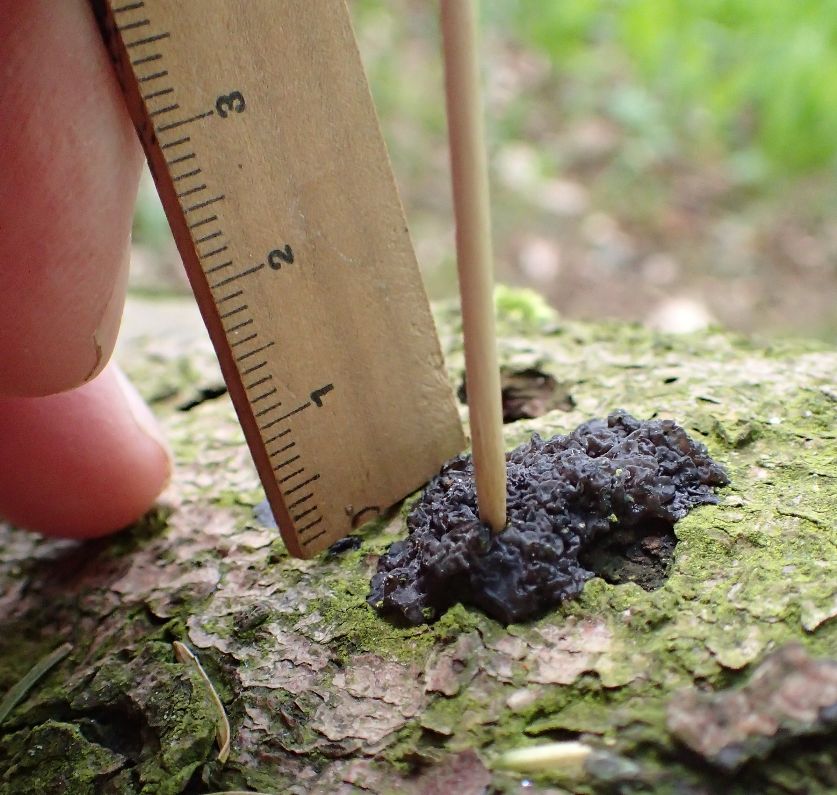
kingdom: Fungi
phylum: Basidiomycota
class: Agaricomycetes
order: Auriculariales
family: Auriculariaceae
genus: Exidia
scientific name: Exidia pithya
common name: gran-bævretop
